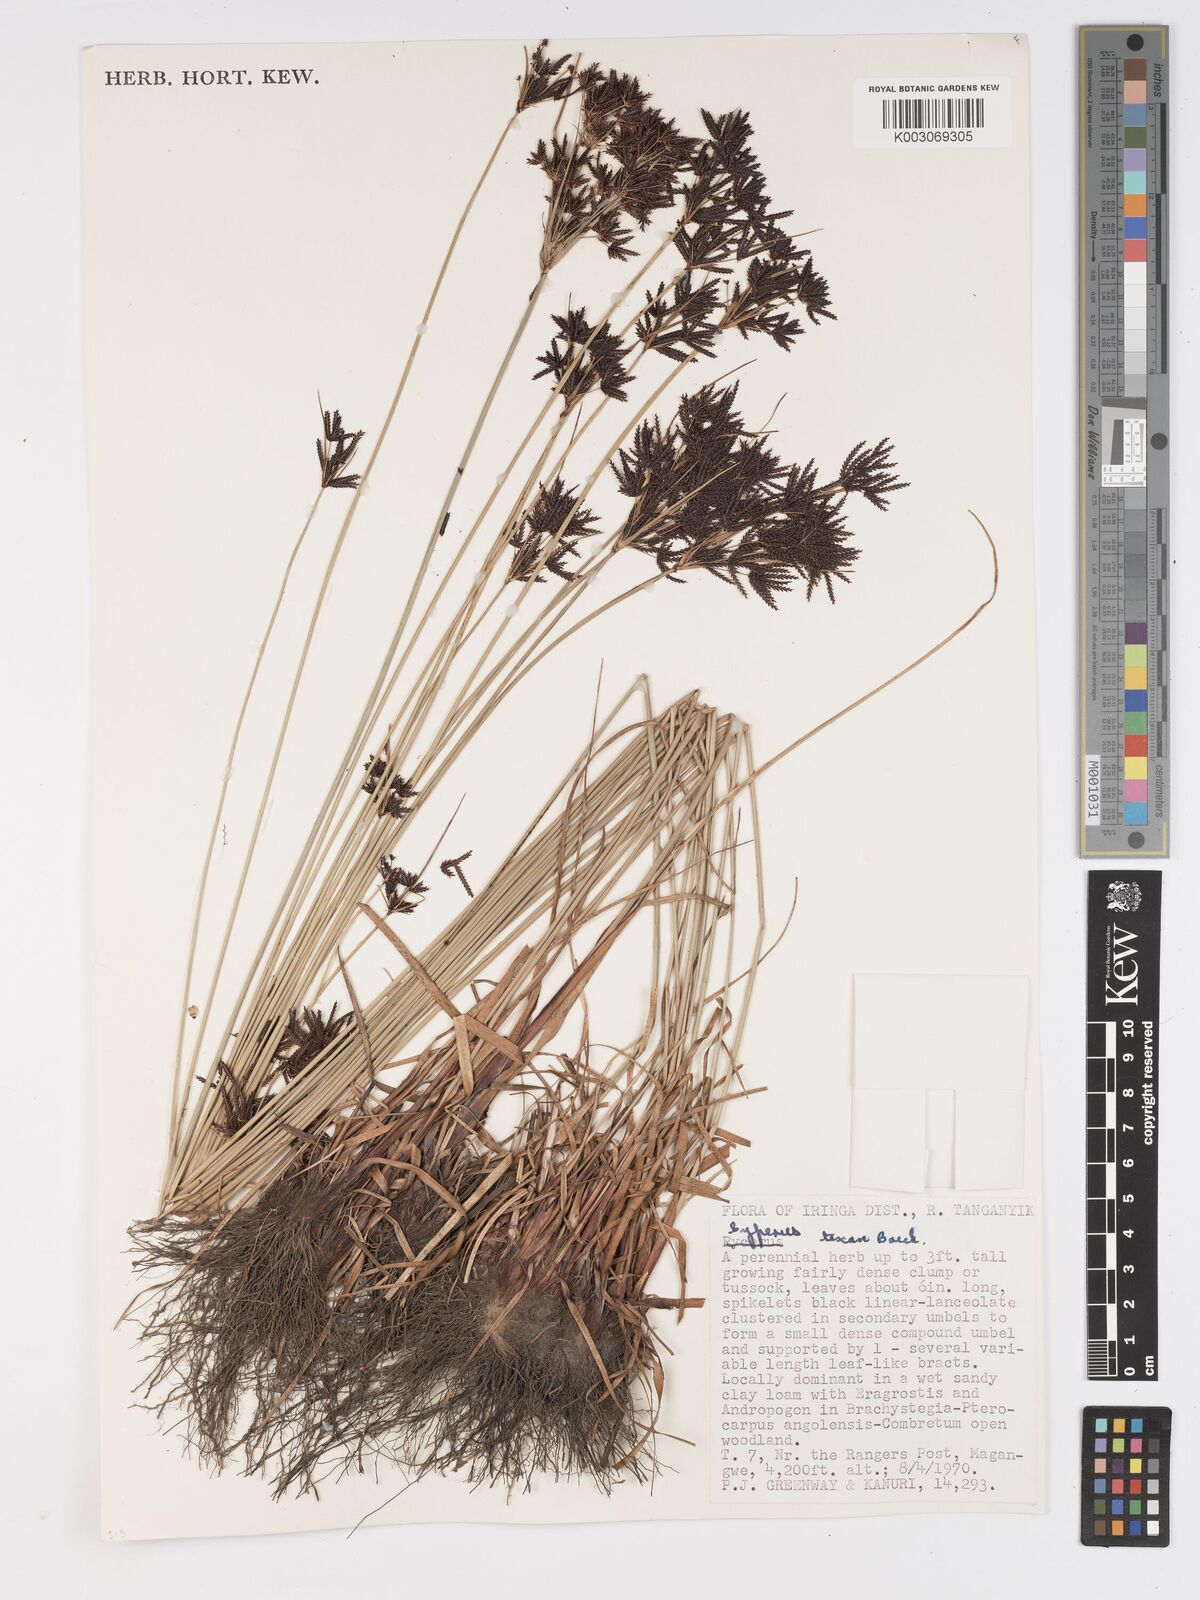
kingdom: Plantae
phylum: Tracheophyta
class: Liliopsida
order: Poales
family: Cyperaceae
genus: Cyperus
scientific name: Cyperus tenax
